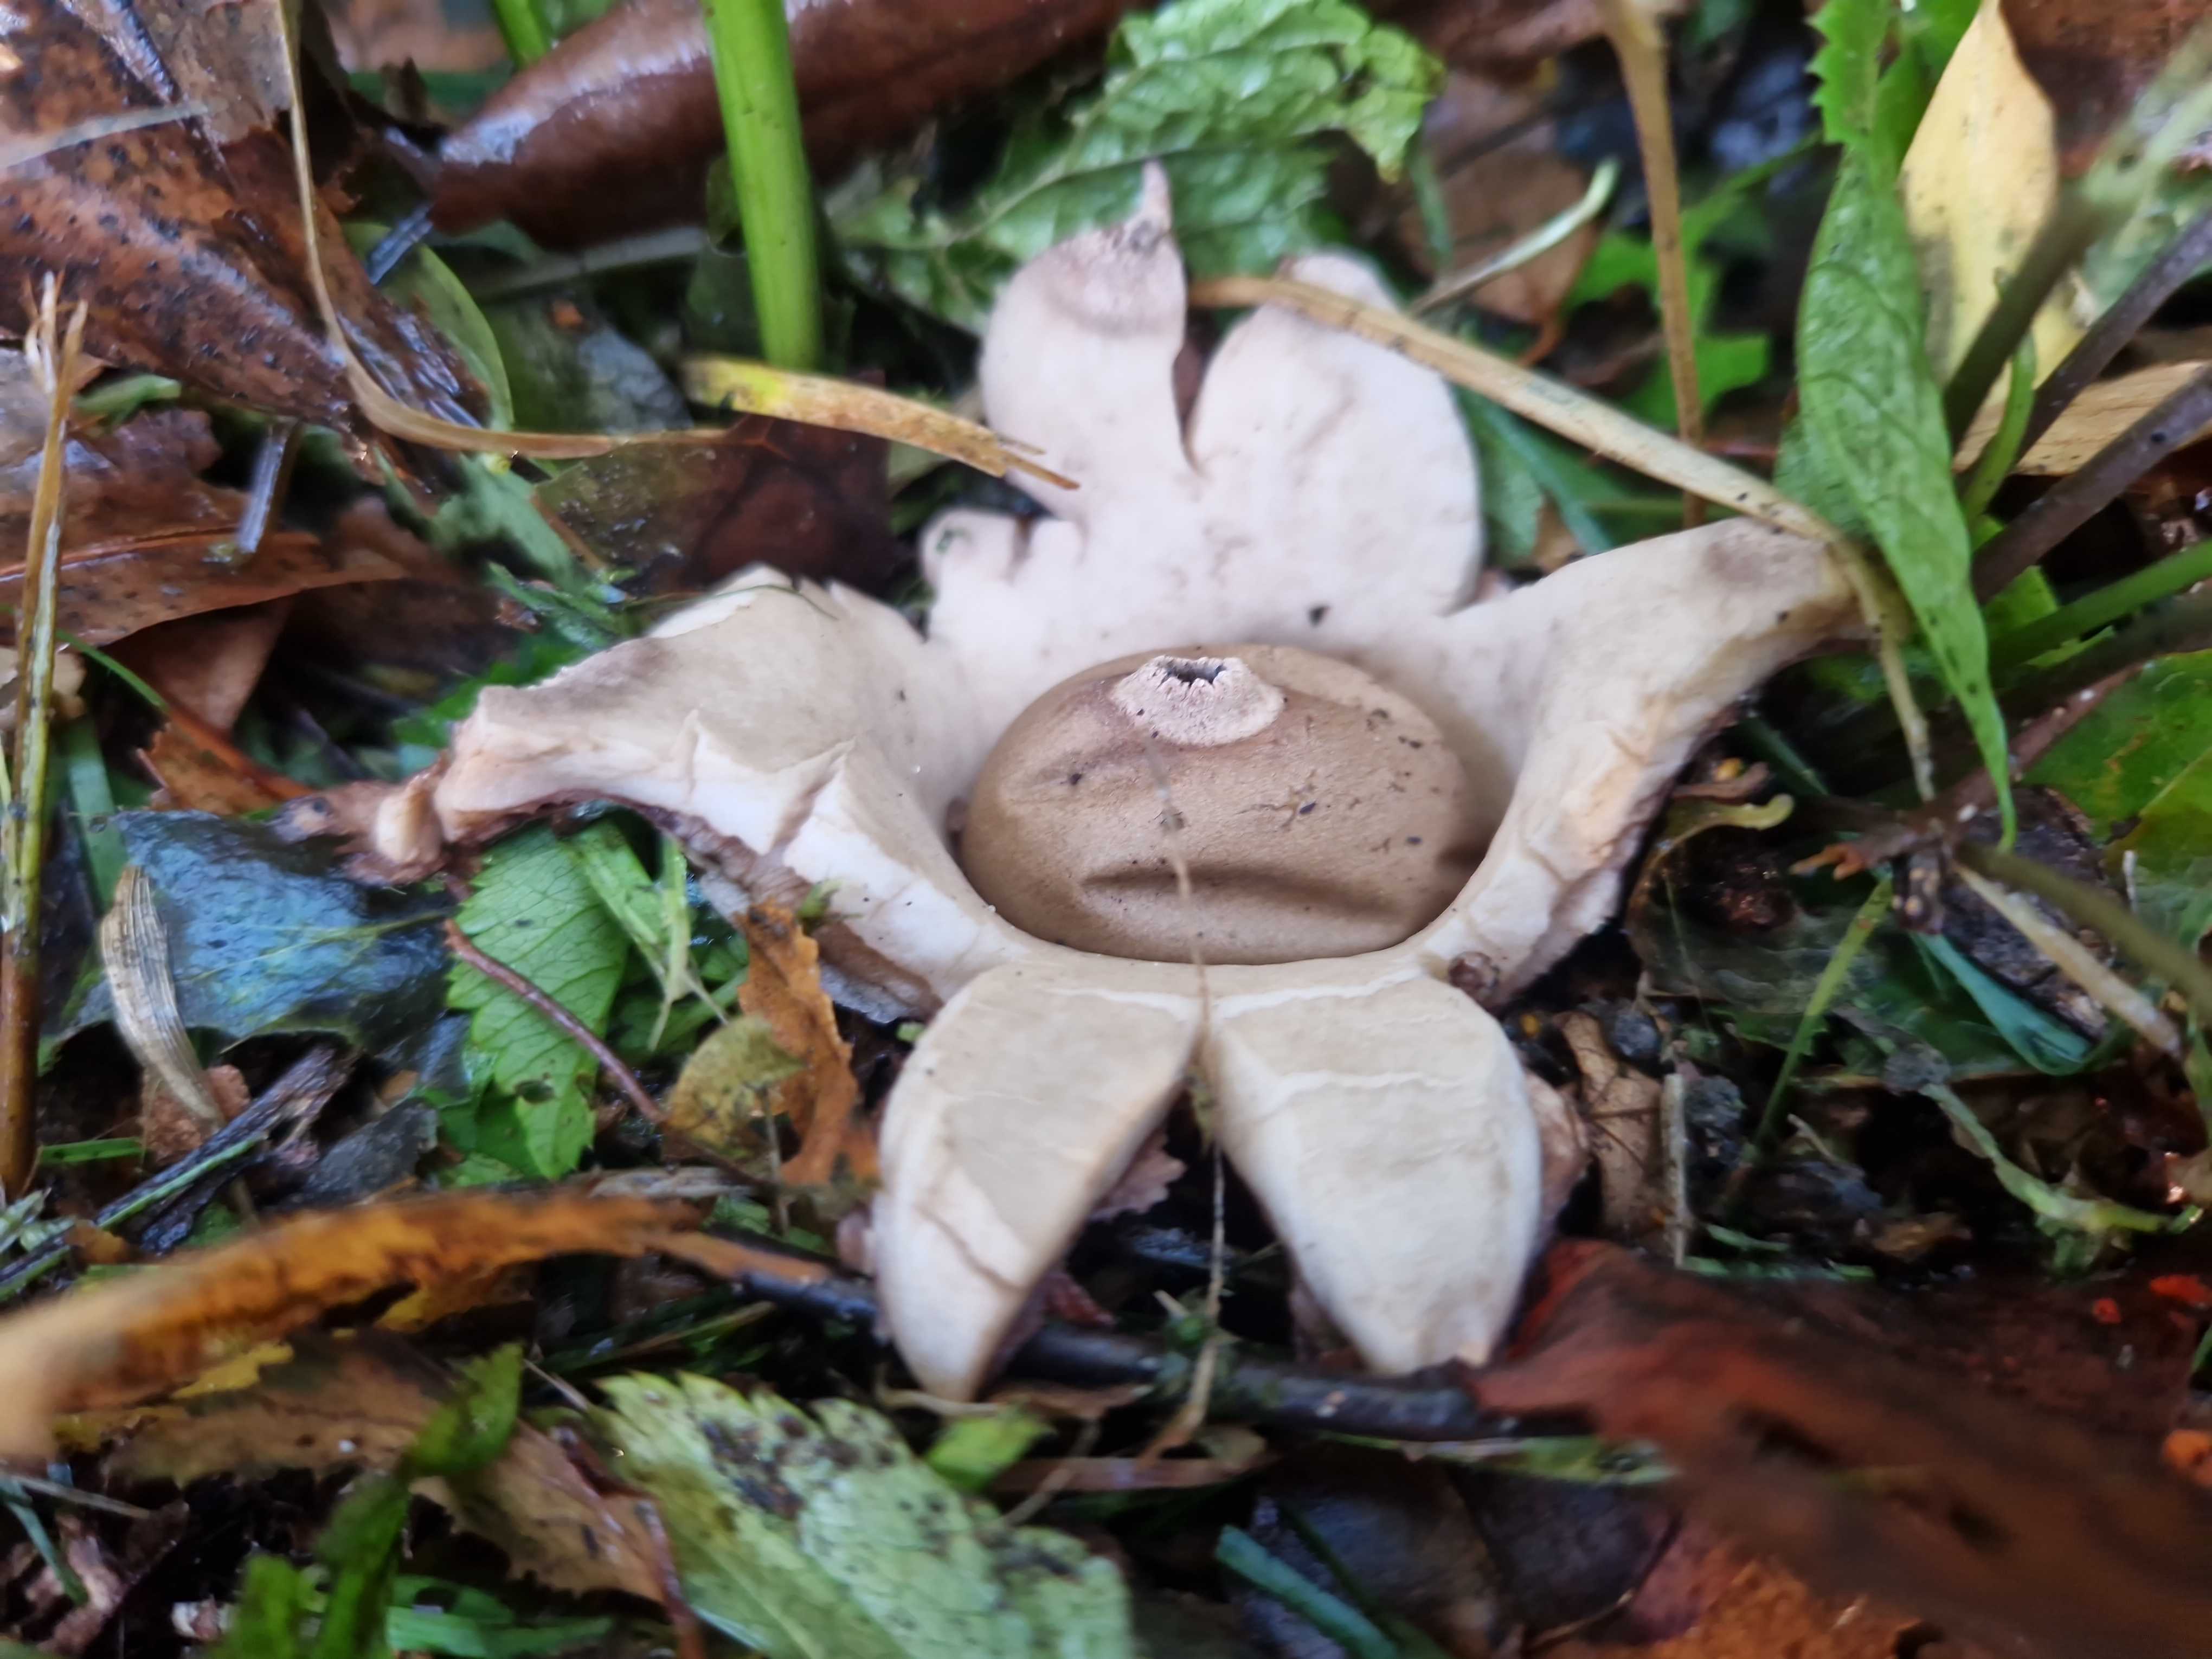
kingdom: Fungi
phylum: Basidiomycota
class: Agaricomycetes
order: Geastrales
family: Geastraceae
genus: Geastrum
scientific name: Geastrum michelianum
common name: kødet stjernebold
